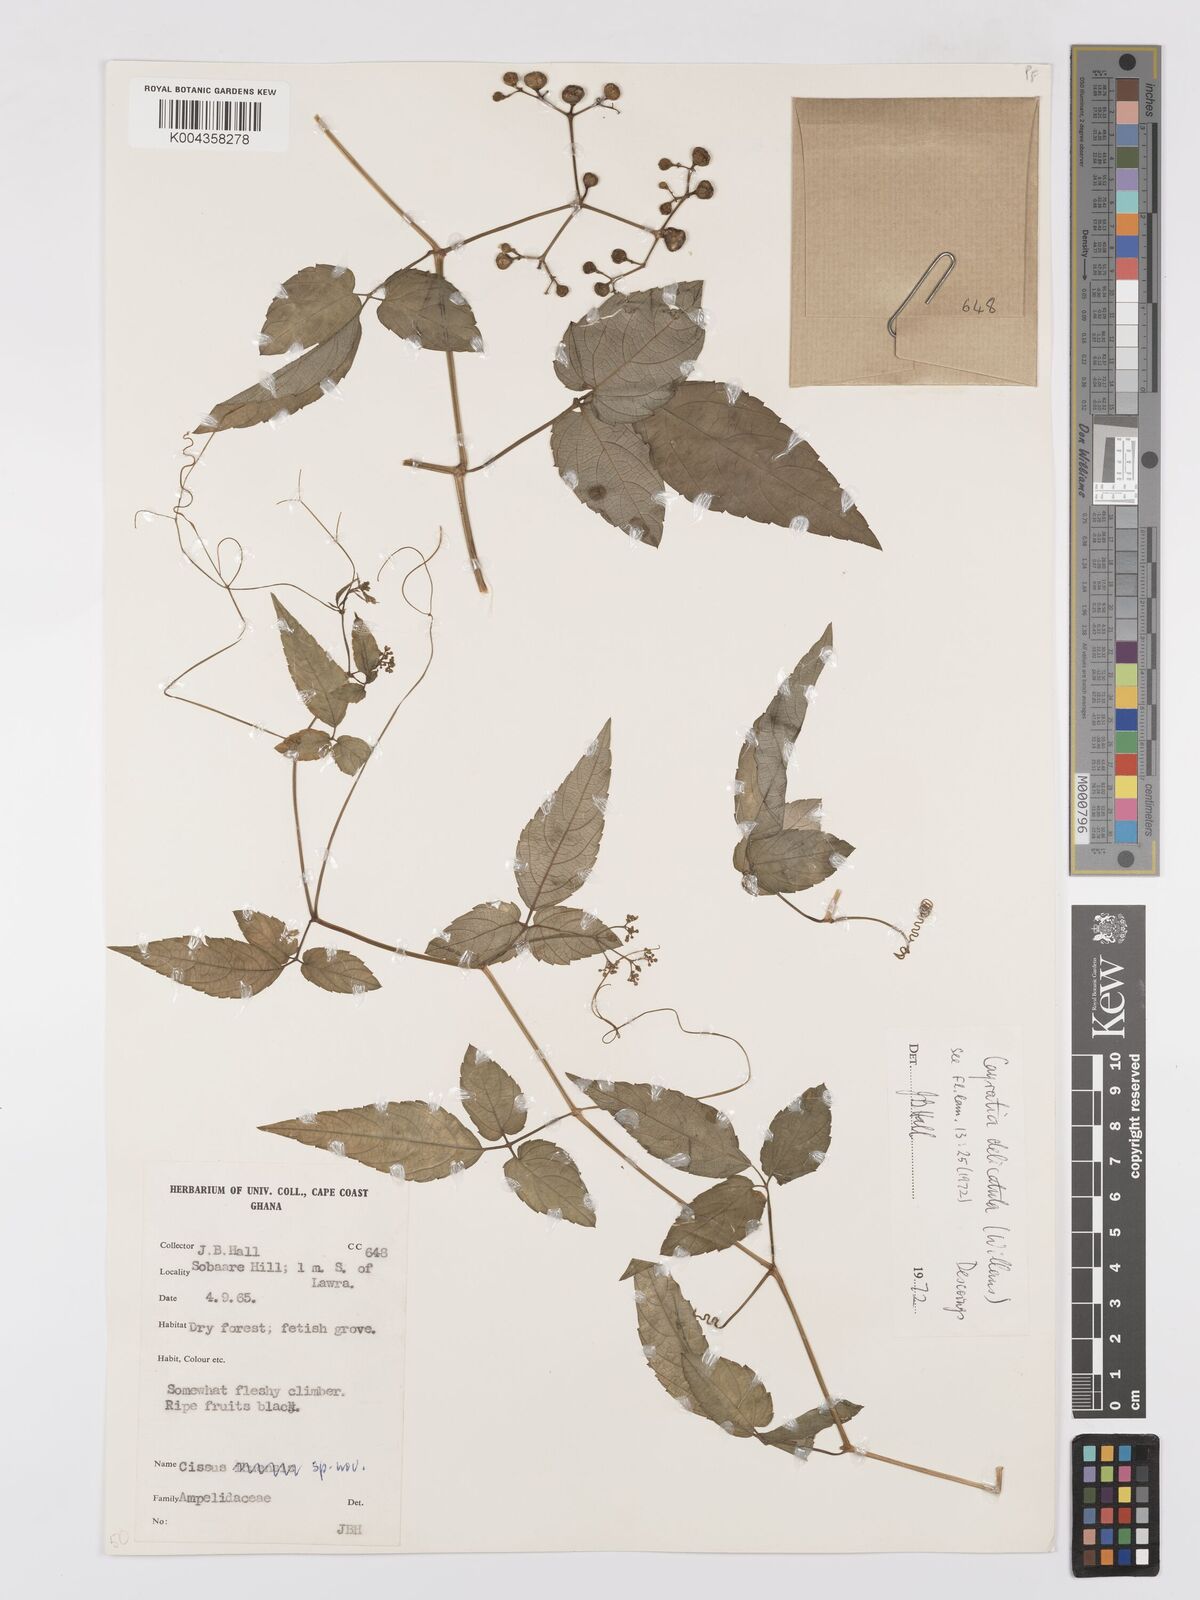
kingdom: Plantae
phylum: Tracheophyta
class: Magnoliopsida
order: Vitales
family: Vitaceae
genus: Afrocayratia
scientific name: Afrocayratia delicatula
